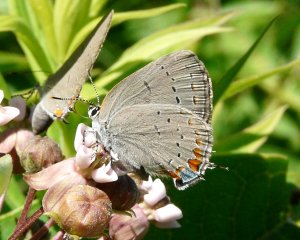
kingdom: Animalia
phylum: Arthropoda
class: Insecta
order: Lepidoptera
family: Lycaenidae
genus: Strymon
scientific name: Strymon acadica
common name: Acadian Hairstreak
